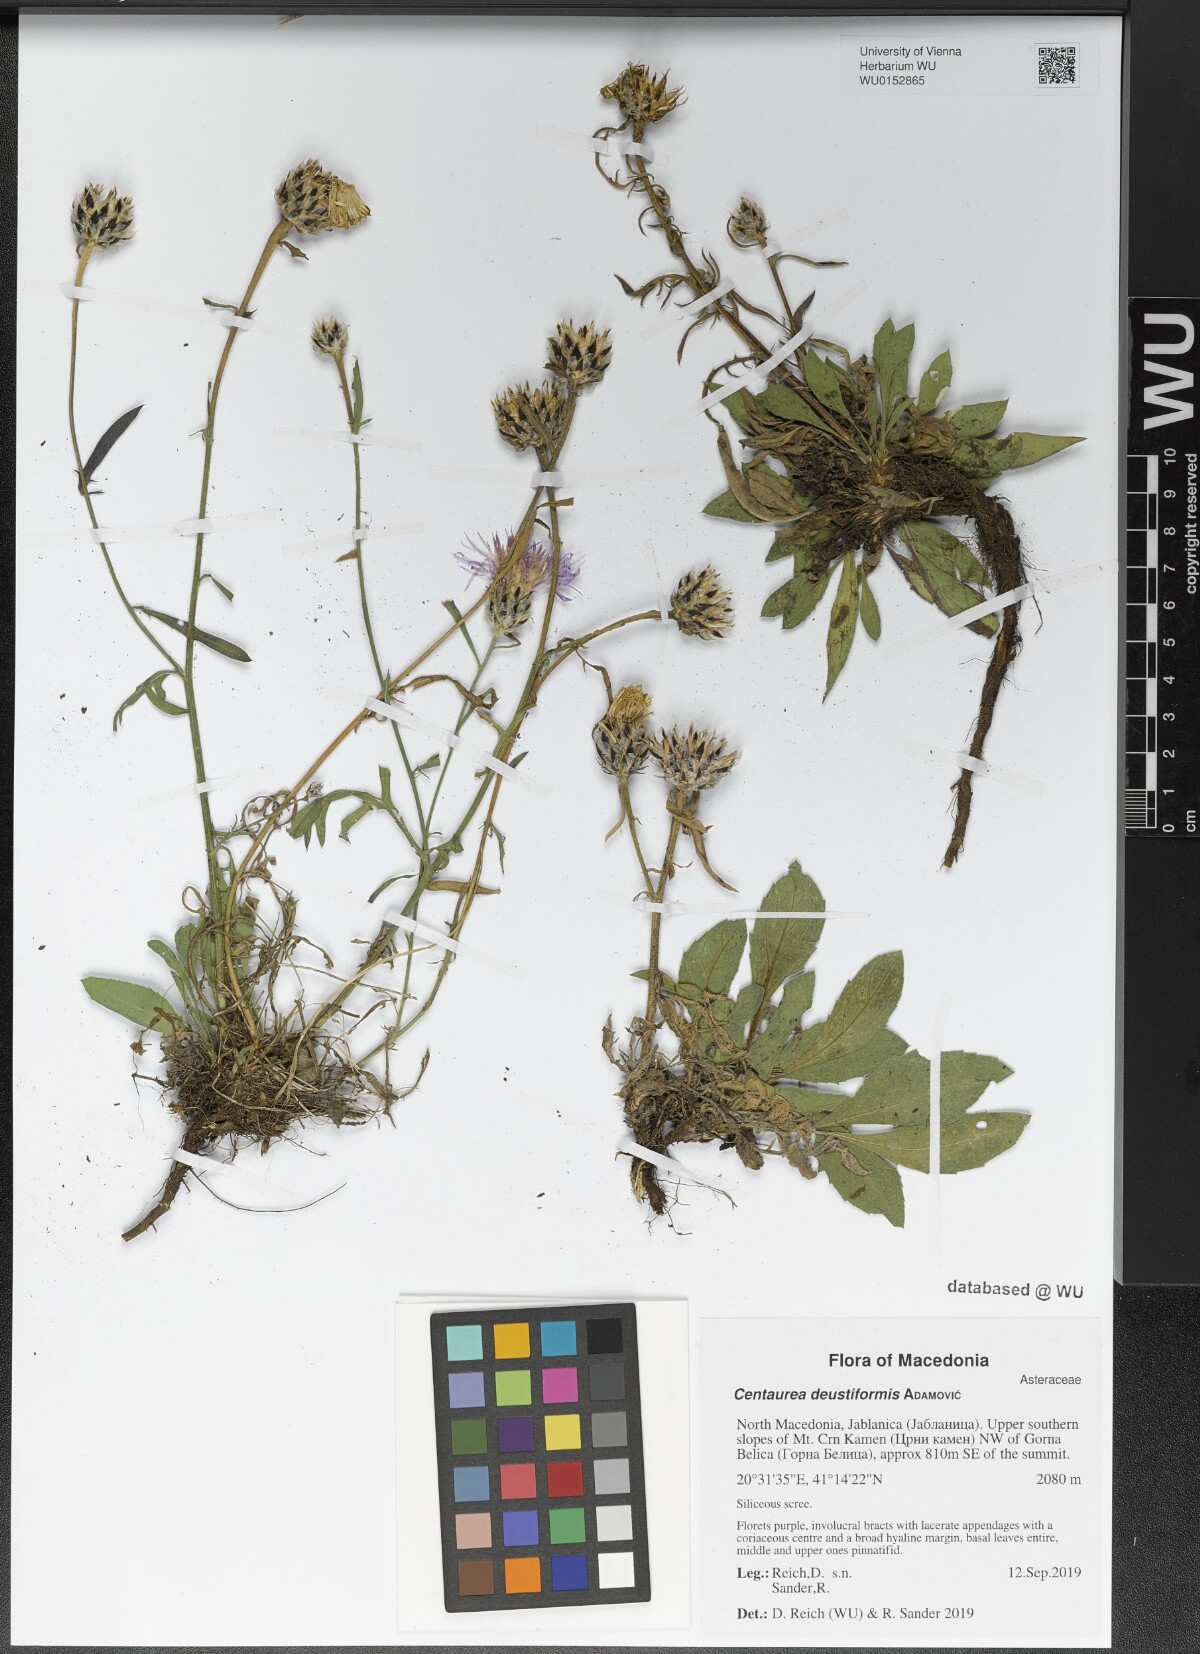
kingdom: Plantae
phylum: Tracheophyta
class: Magnoliopsida
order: Asterales
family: Asteraceae
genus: Centaurea
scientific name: Centaurea deustiformis
